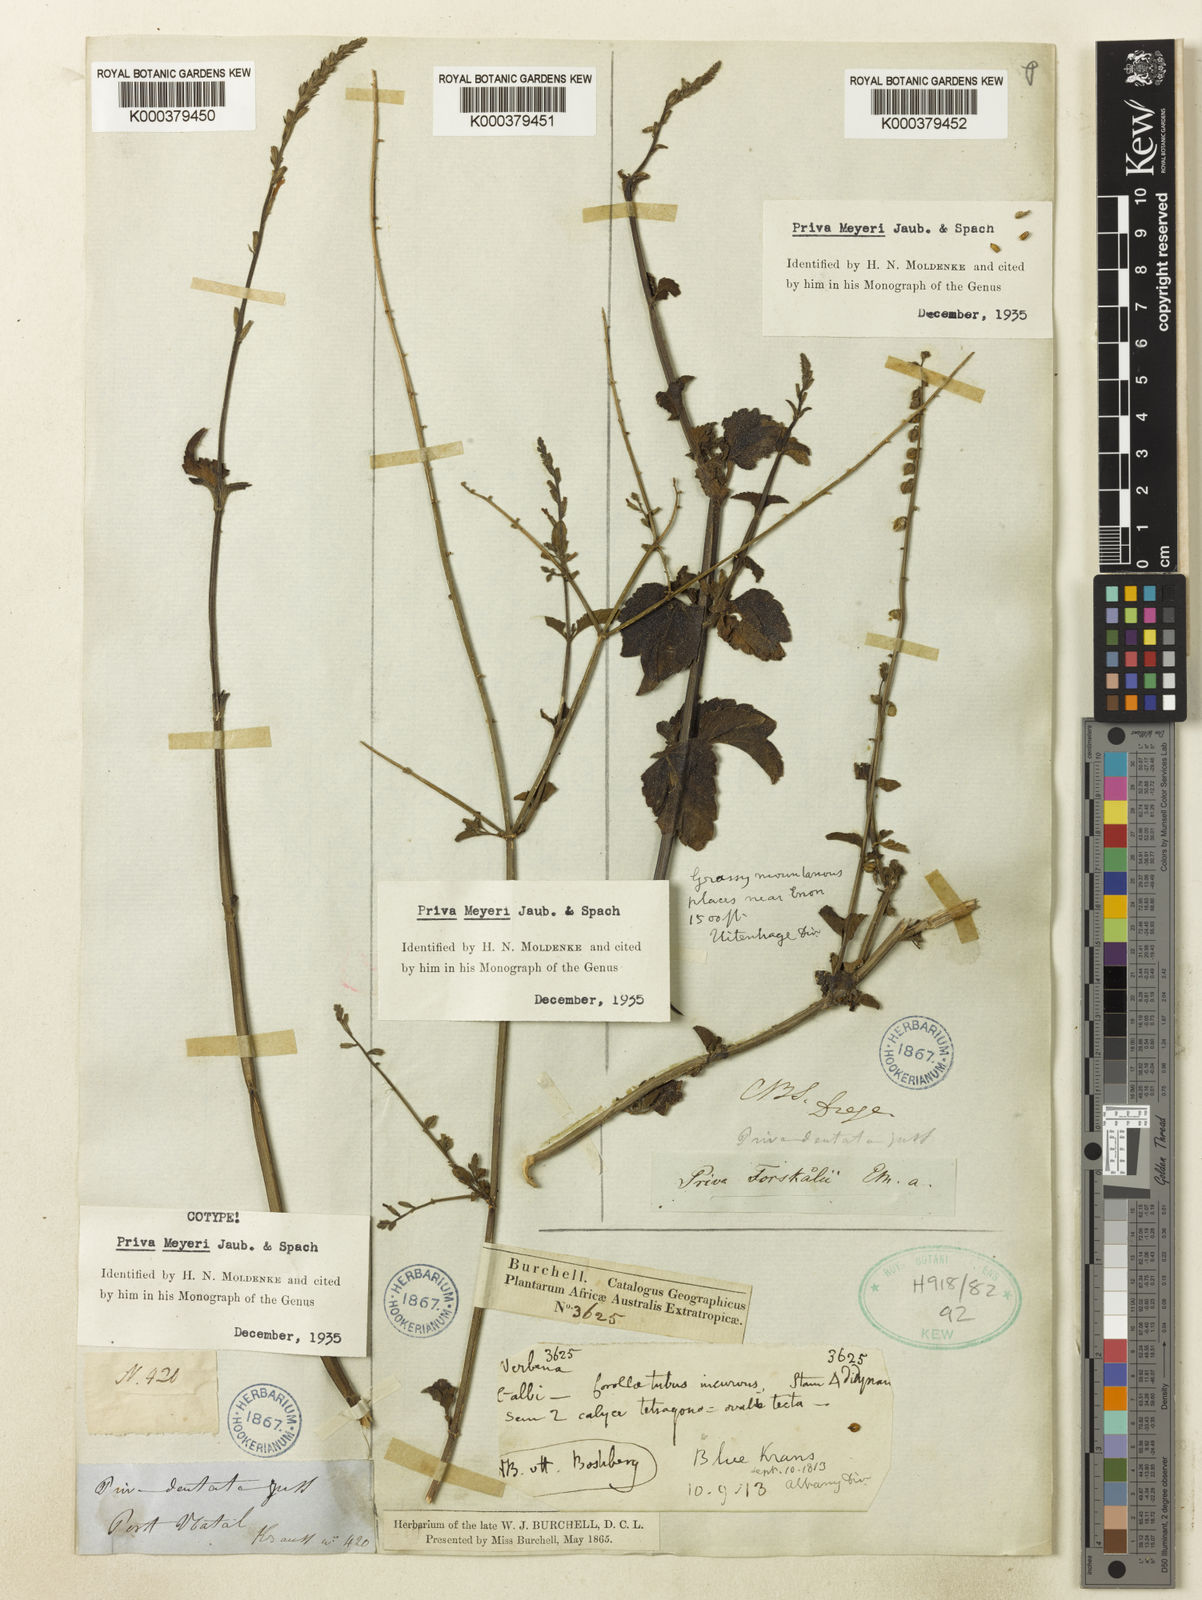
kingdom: Plantae
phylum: Tracheophyta
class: Magnoliopsida
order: Lamiales
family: Verbenaceae
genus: Priva
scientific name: Priva meyeri
